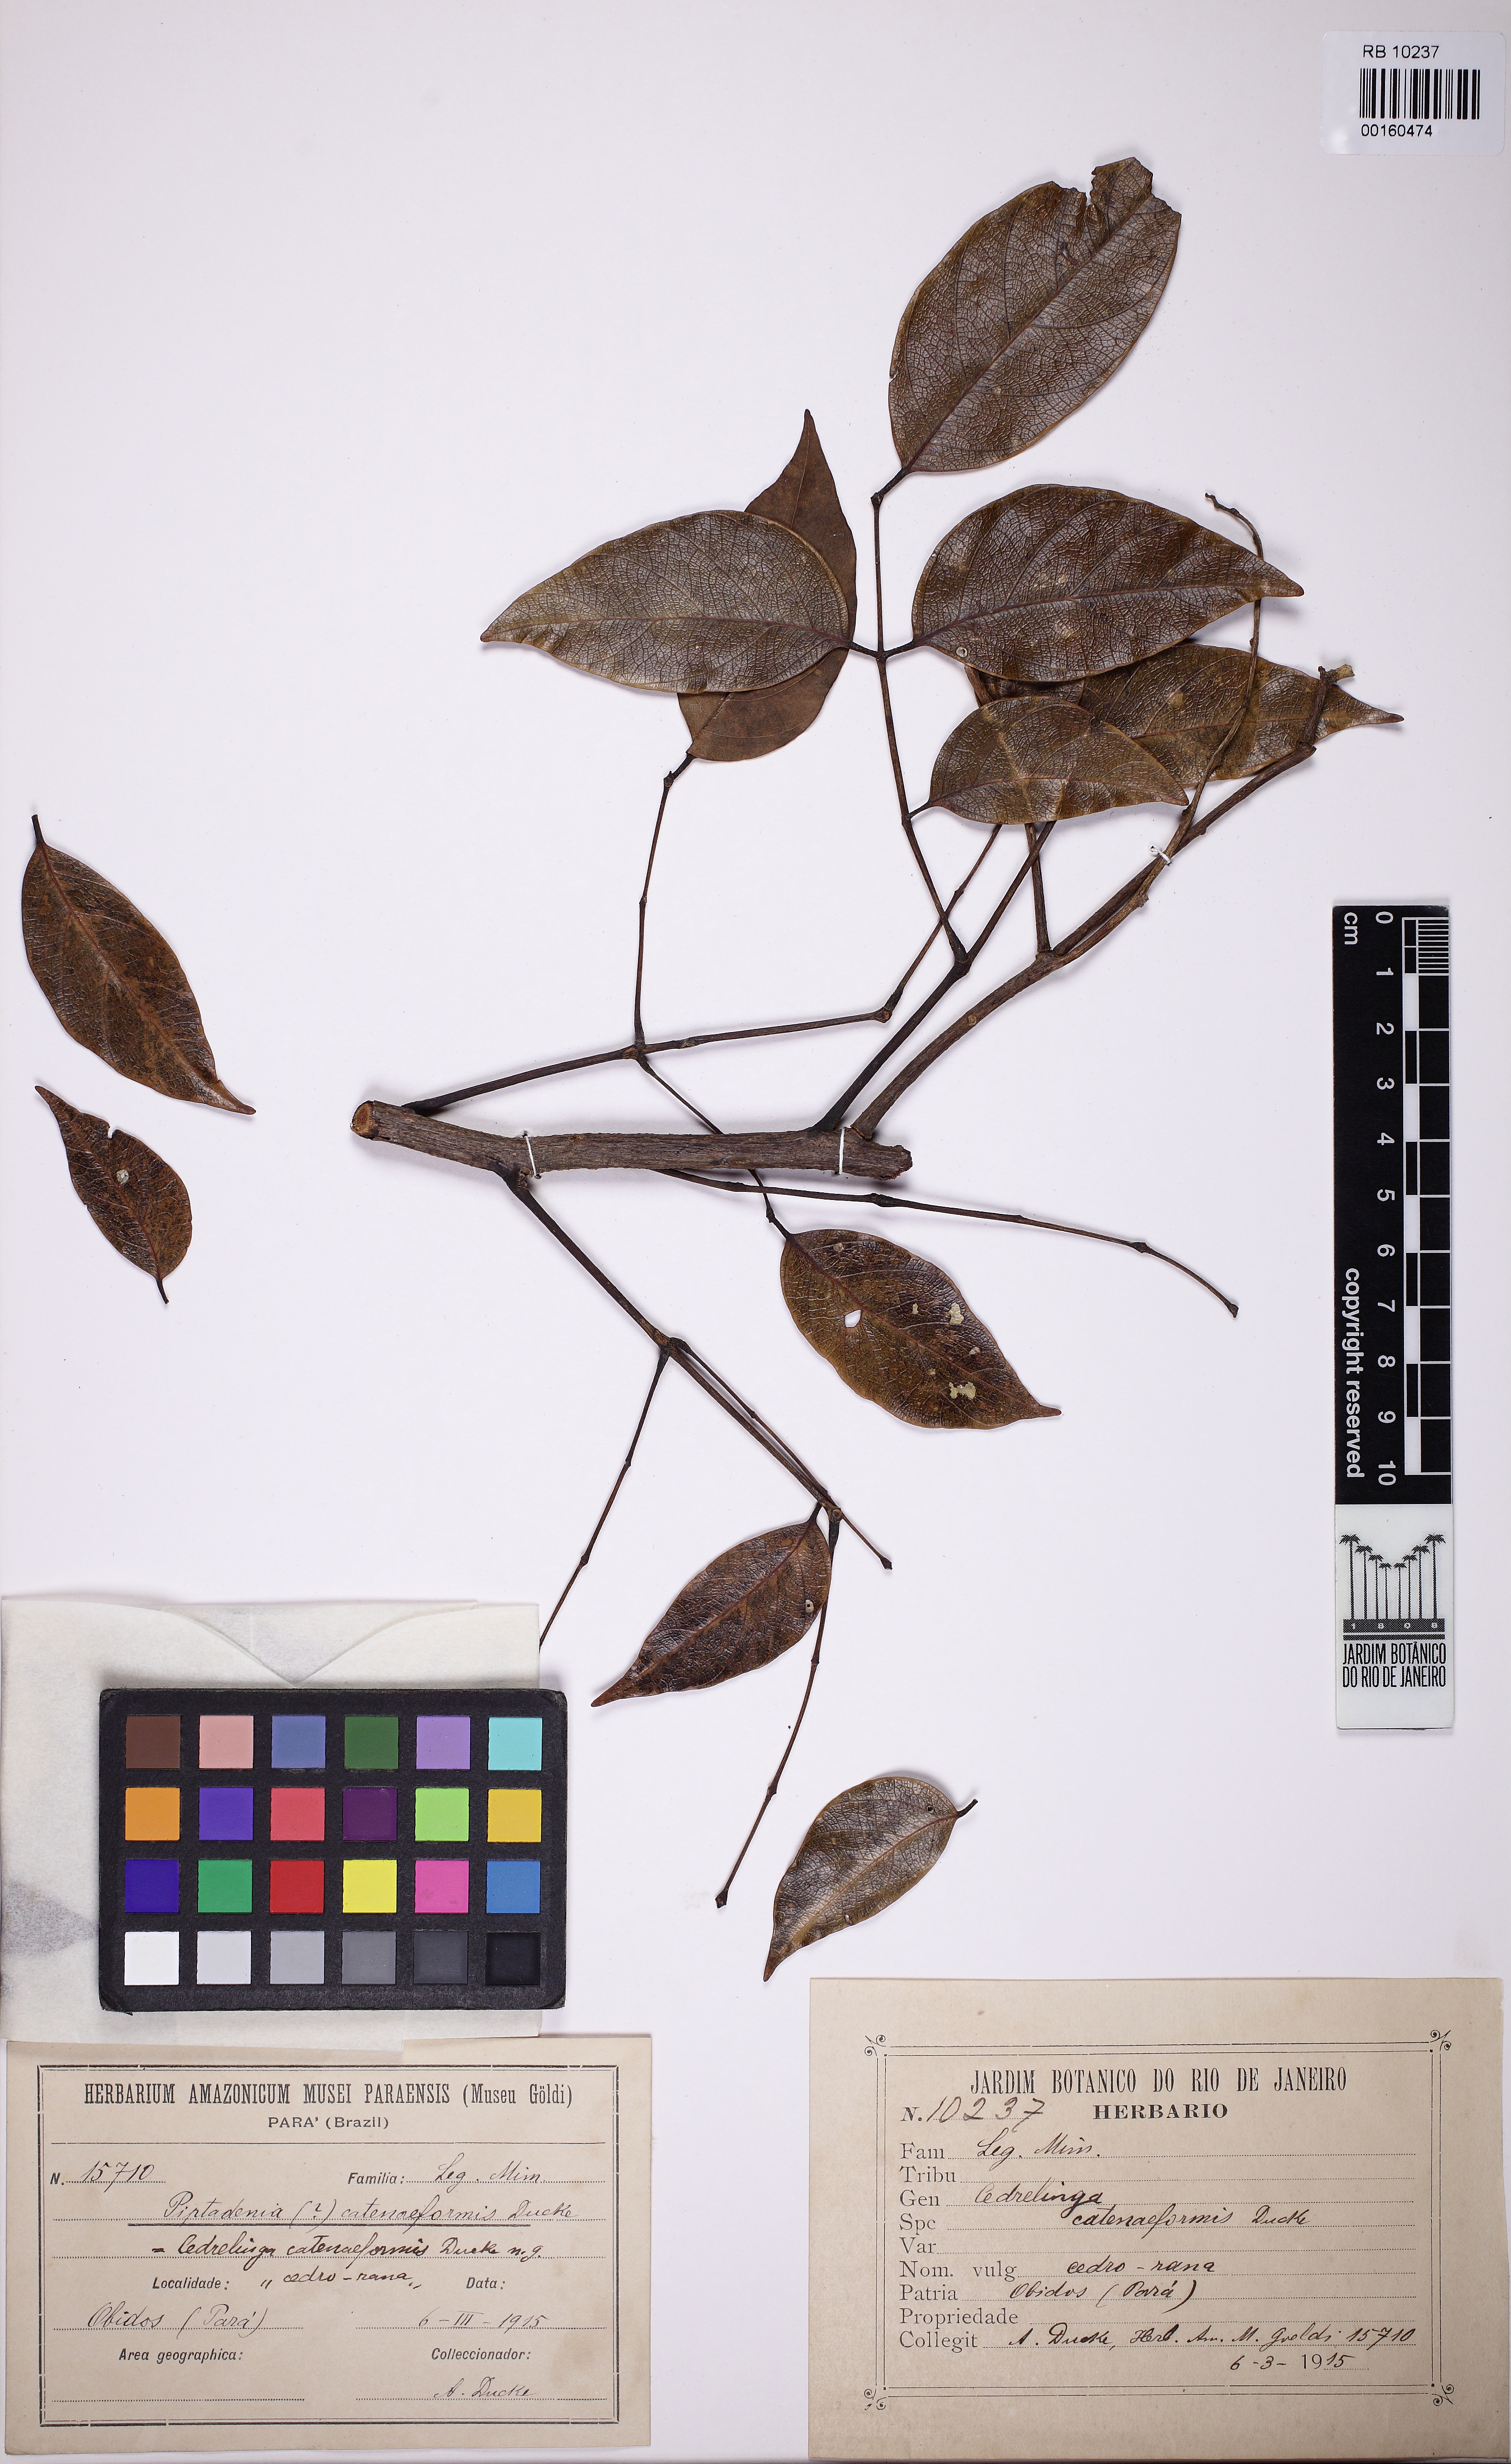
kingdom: Plantae
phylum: Tracheophyta
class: Magnoliopsida
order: Fabales
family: Fabaceae
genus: Cedrelinga
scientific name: Cedrelinga cateniformis
